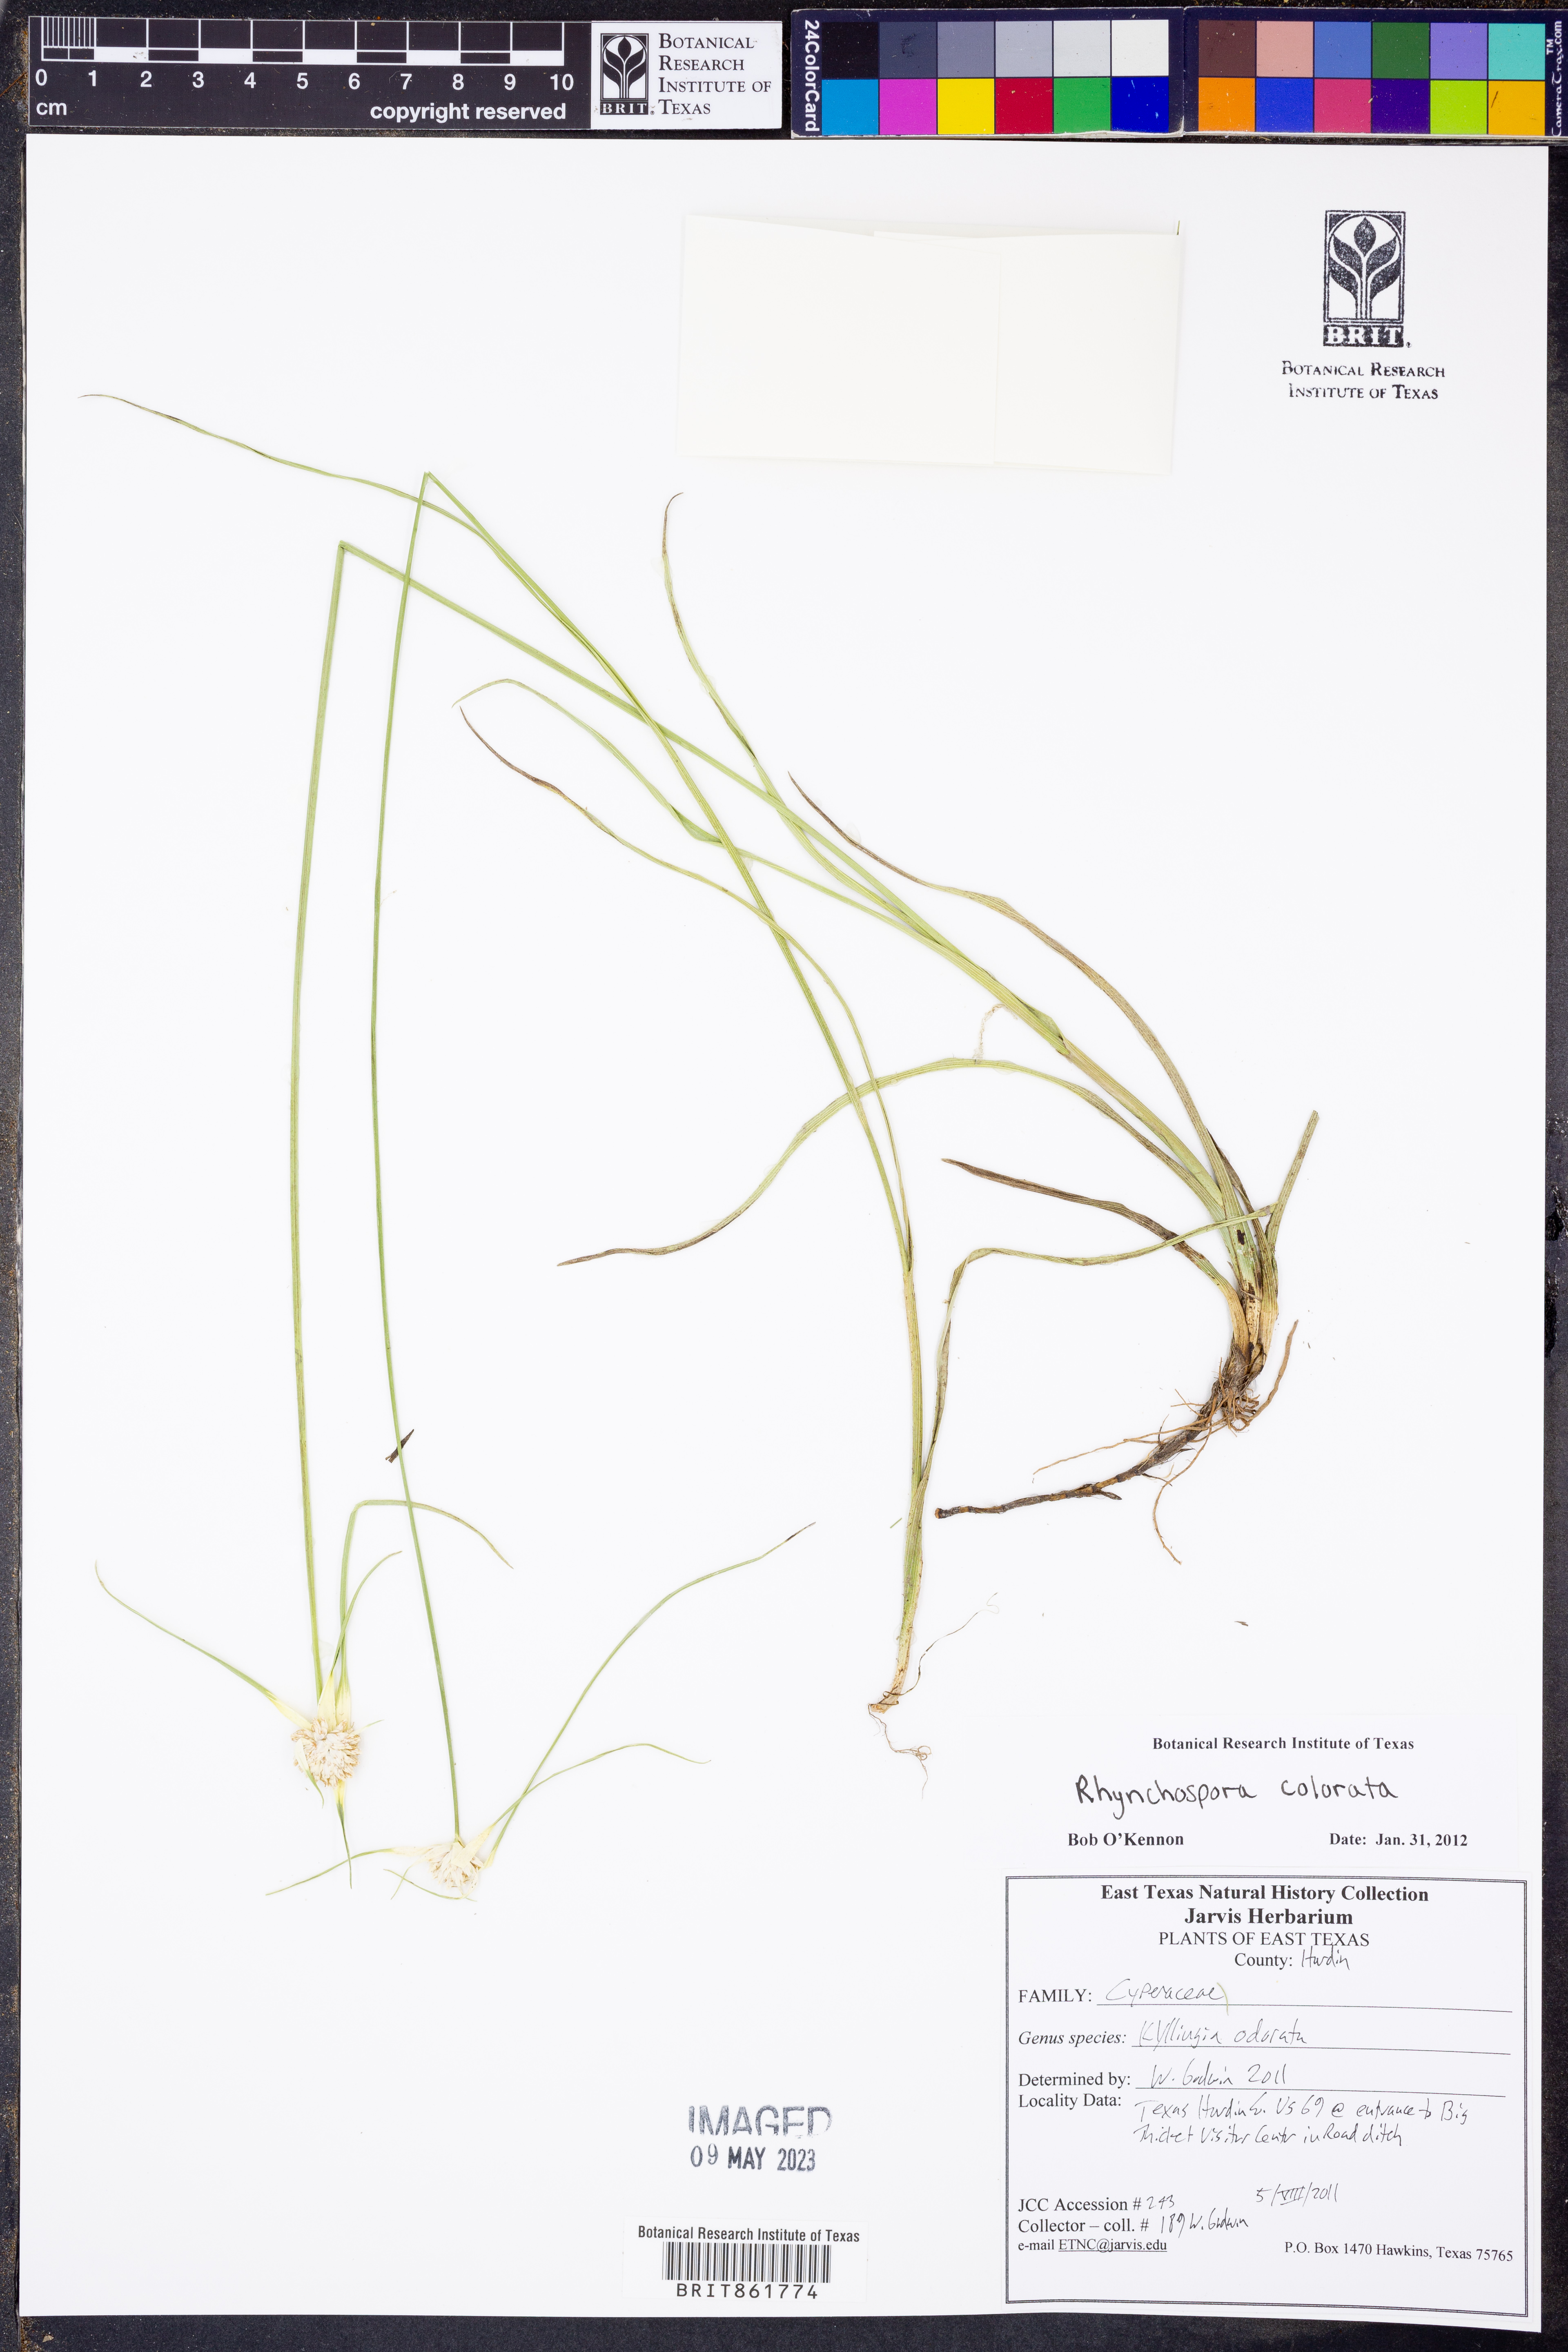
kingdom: Plantae
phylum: Tracheophyta
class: Liliopsida
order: Poales
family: Cyperaceae
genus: Cyperus
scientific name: Cyperus sesquiflorus
